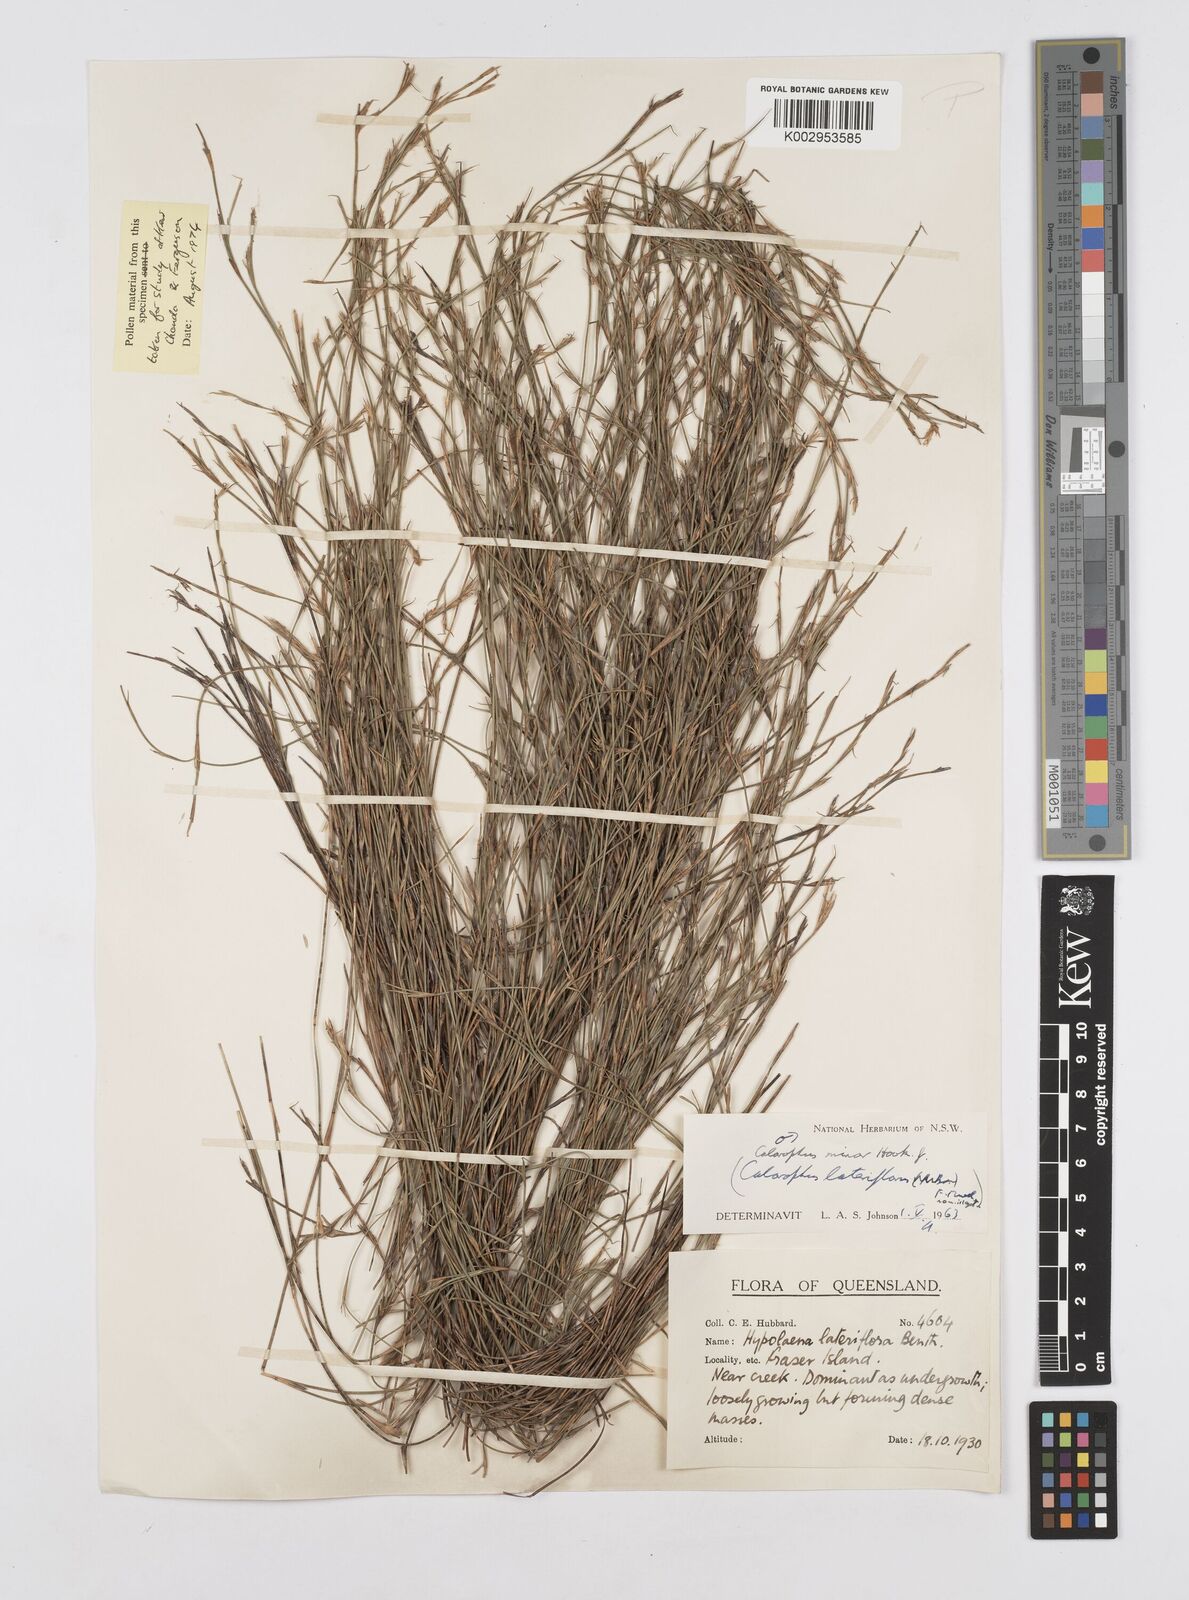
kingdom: Plantae
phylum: Tracheophyta
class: Liliopsida
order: Poales
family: Restionaceae
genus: Empodisma
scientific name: Empodisma minus
